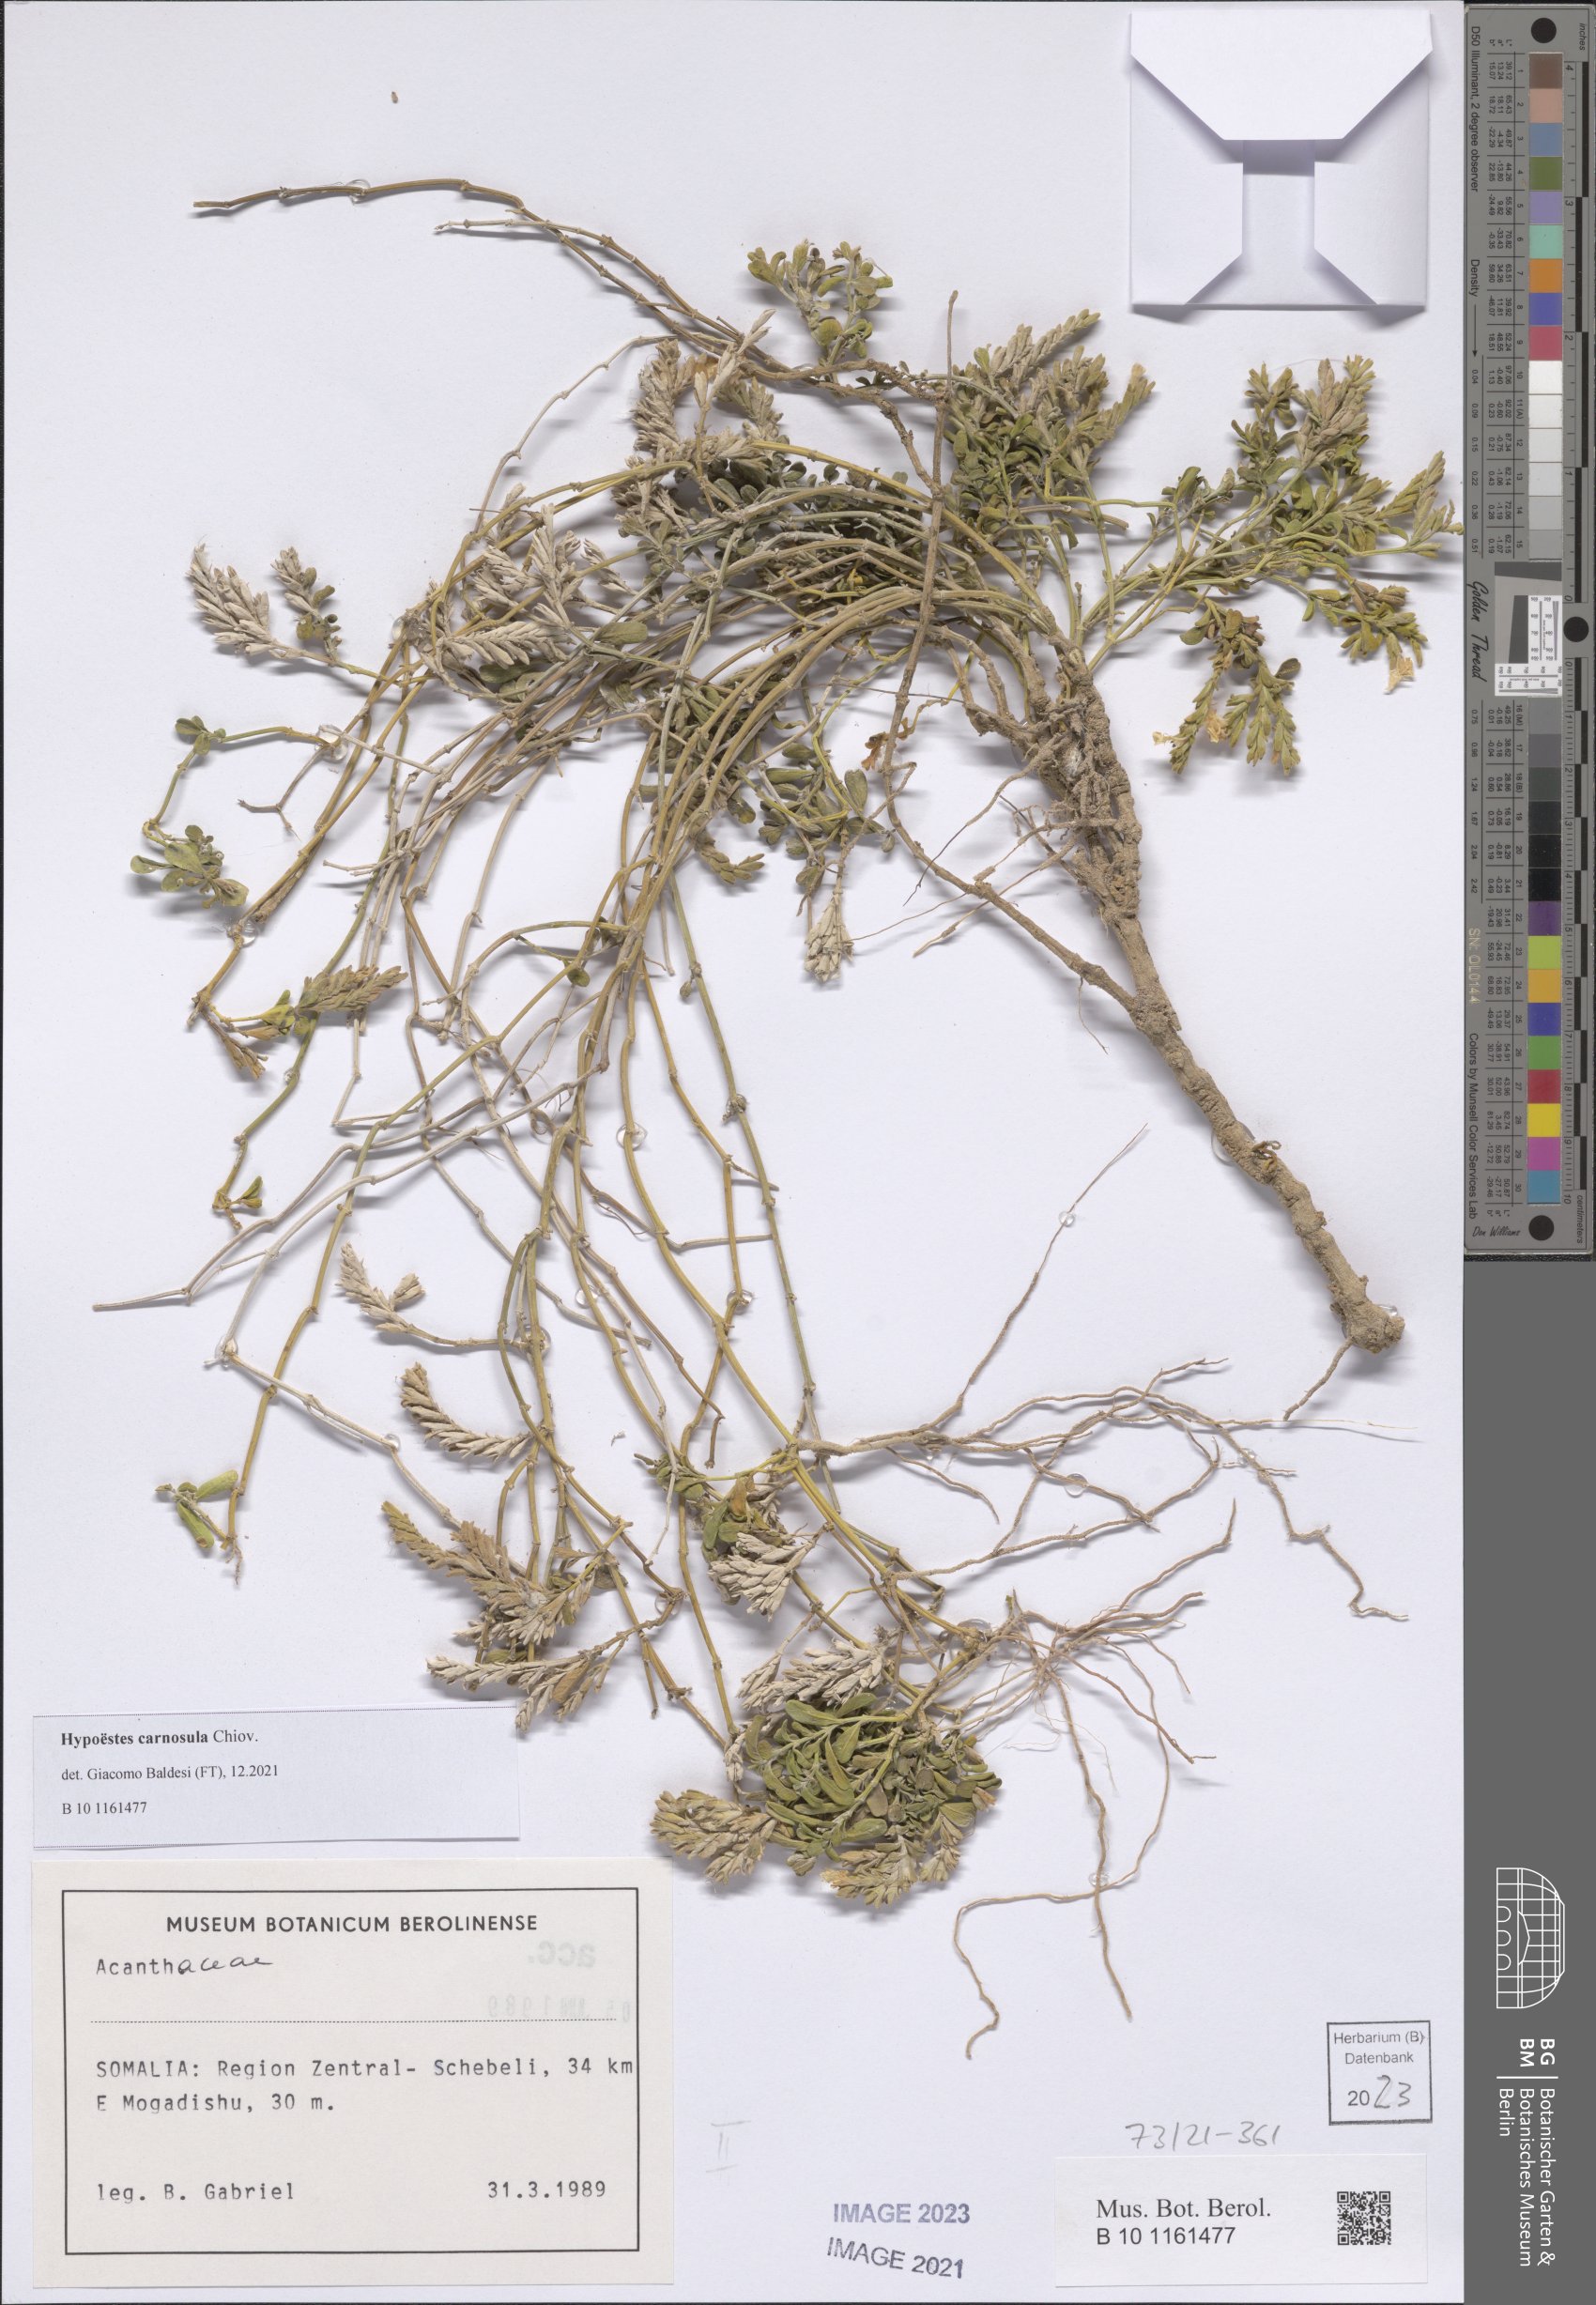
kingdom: Plantae
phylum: Tracheophyta
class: Magnoliopsida
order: Lamiales
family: Acanthaceae
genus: Hypoestes
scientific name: Hypoestes carnosula
